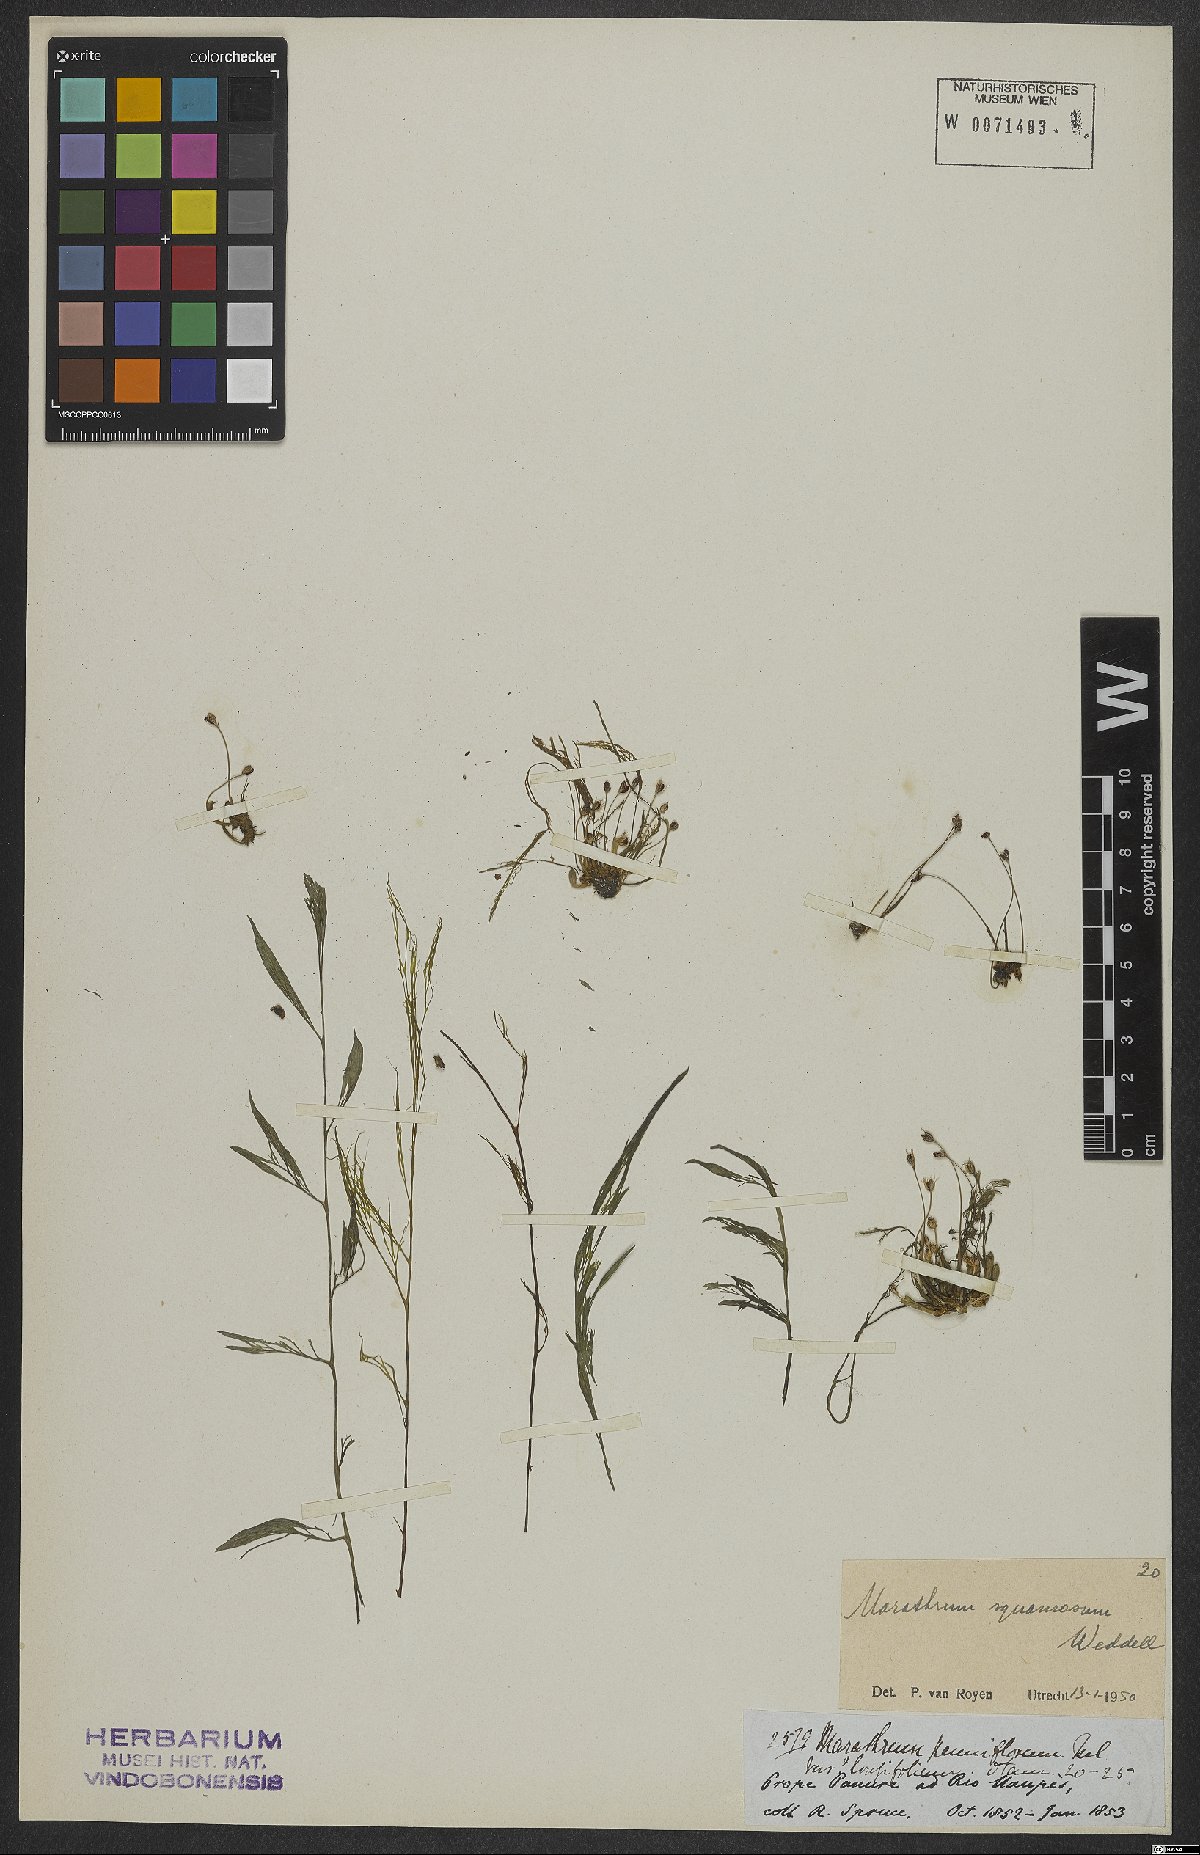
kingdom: Plantae
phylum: Tracheophyta
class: Magnoliopsida
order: Malpighiales
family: Podostemaceae
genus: Rhyncholacis
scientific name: Rhyncholacis squamosa
